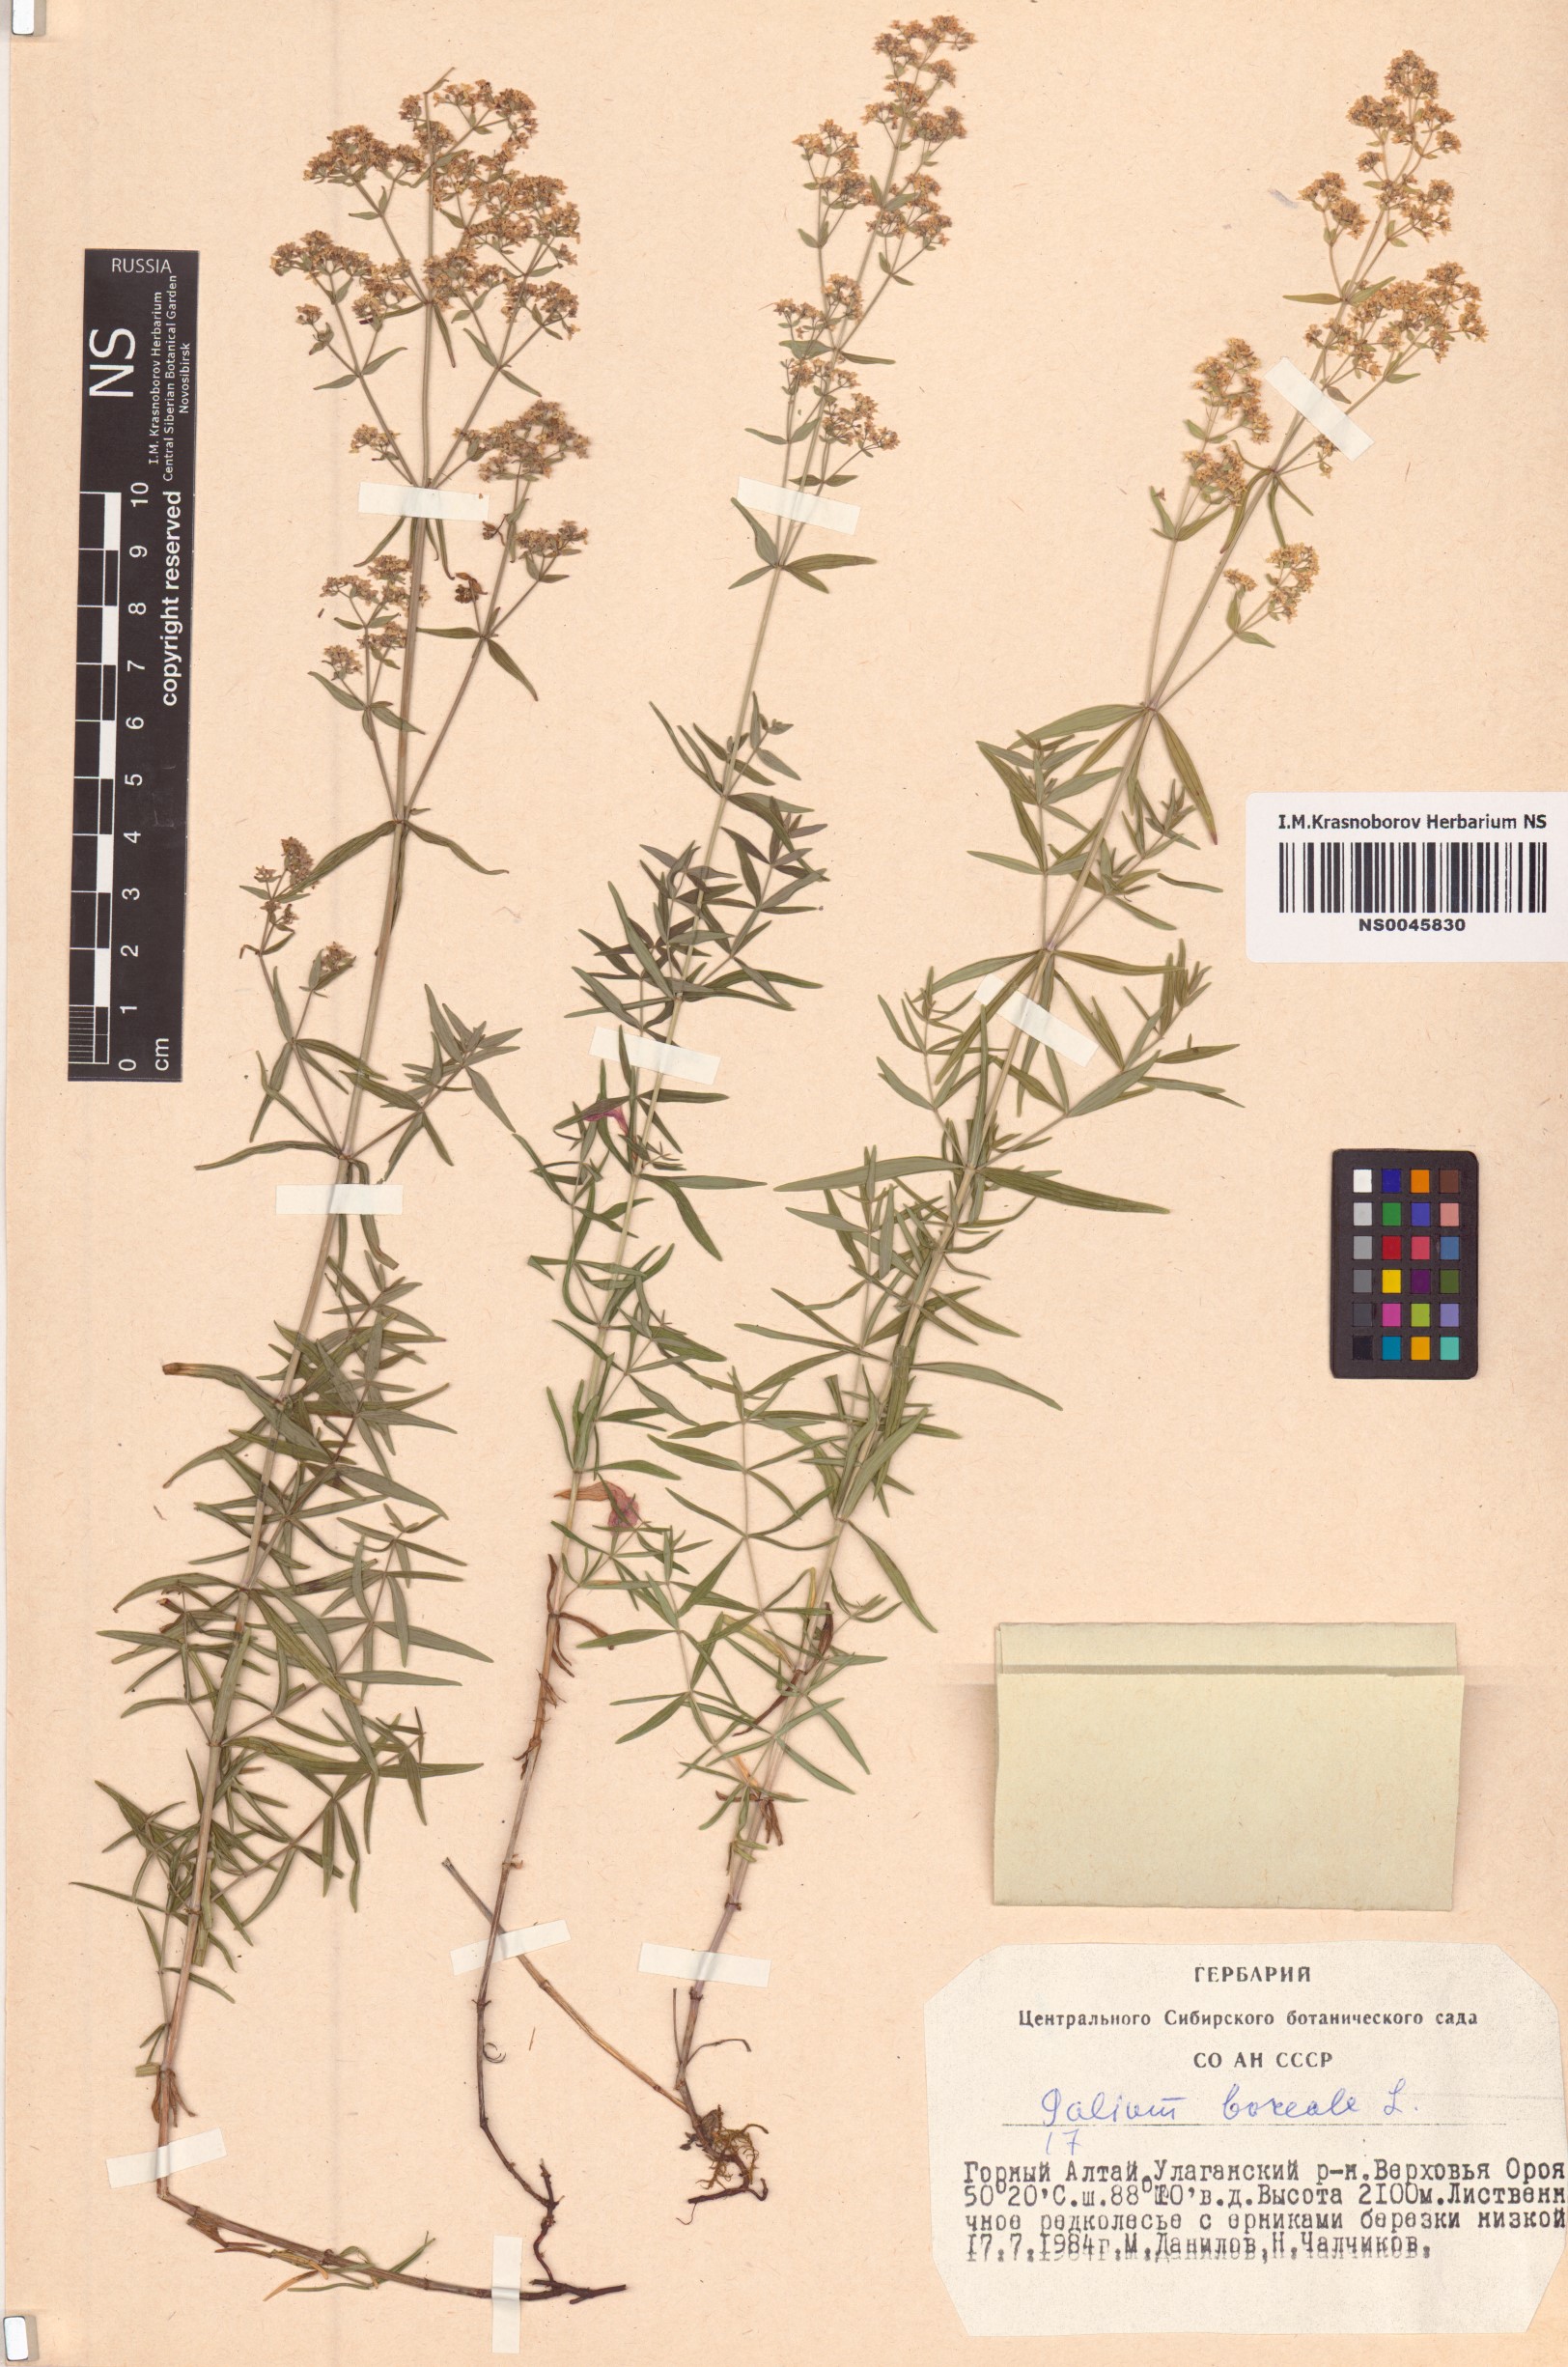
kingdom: Plantae
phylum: Tracheophyta
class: Magnoliopsida
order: Gentianales
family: Rubiaceae
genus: Galium
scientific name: Galium boreale
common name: Northern bedstraw
